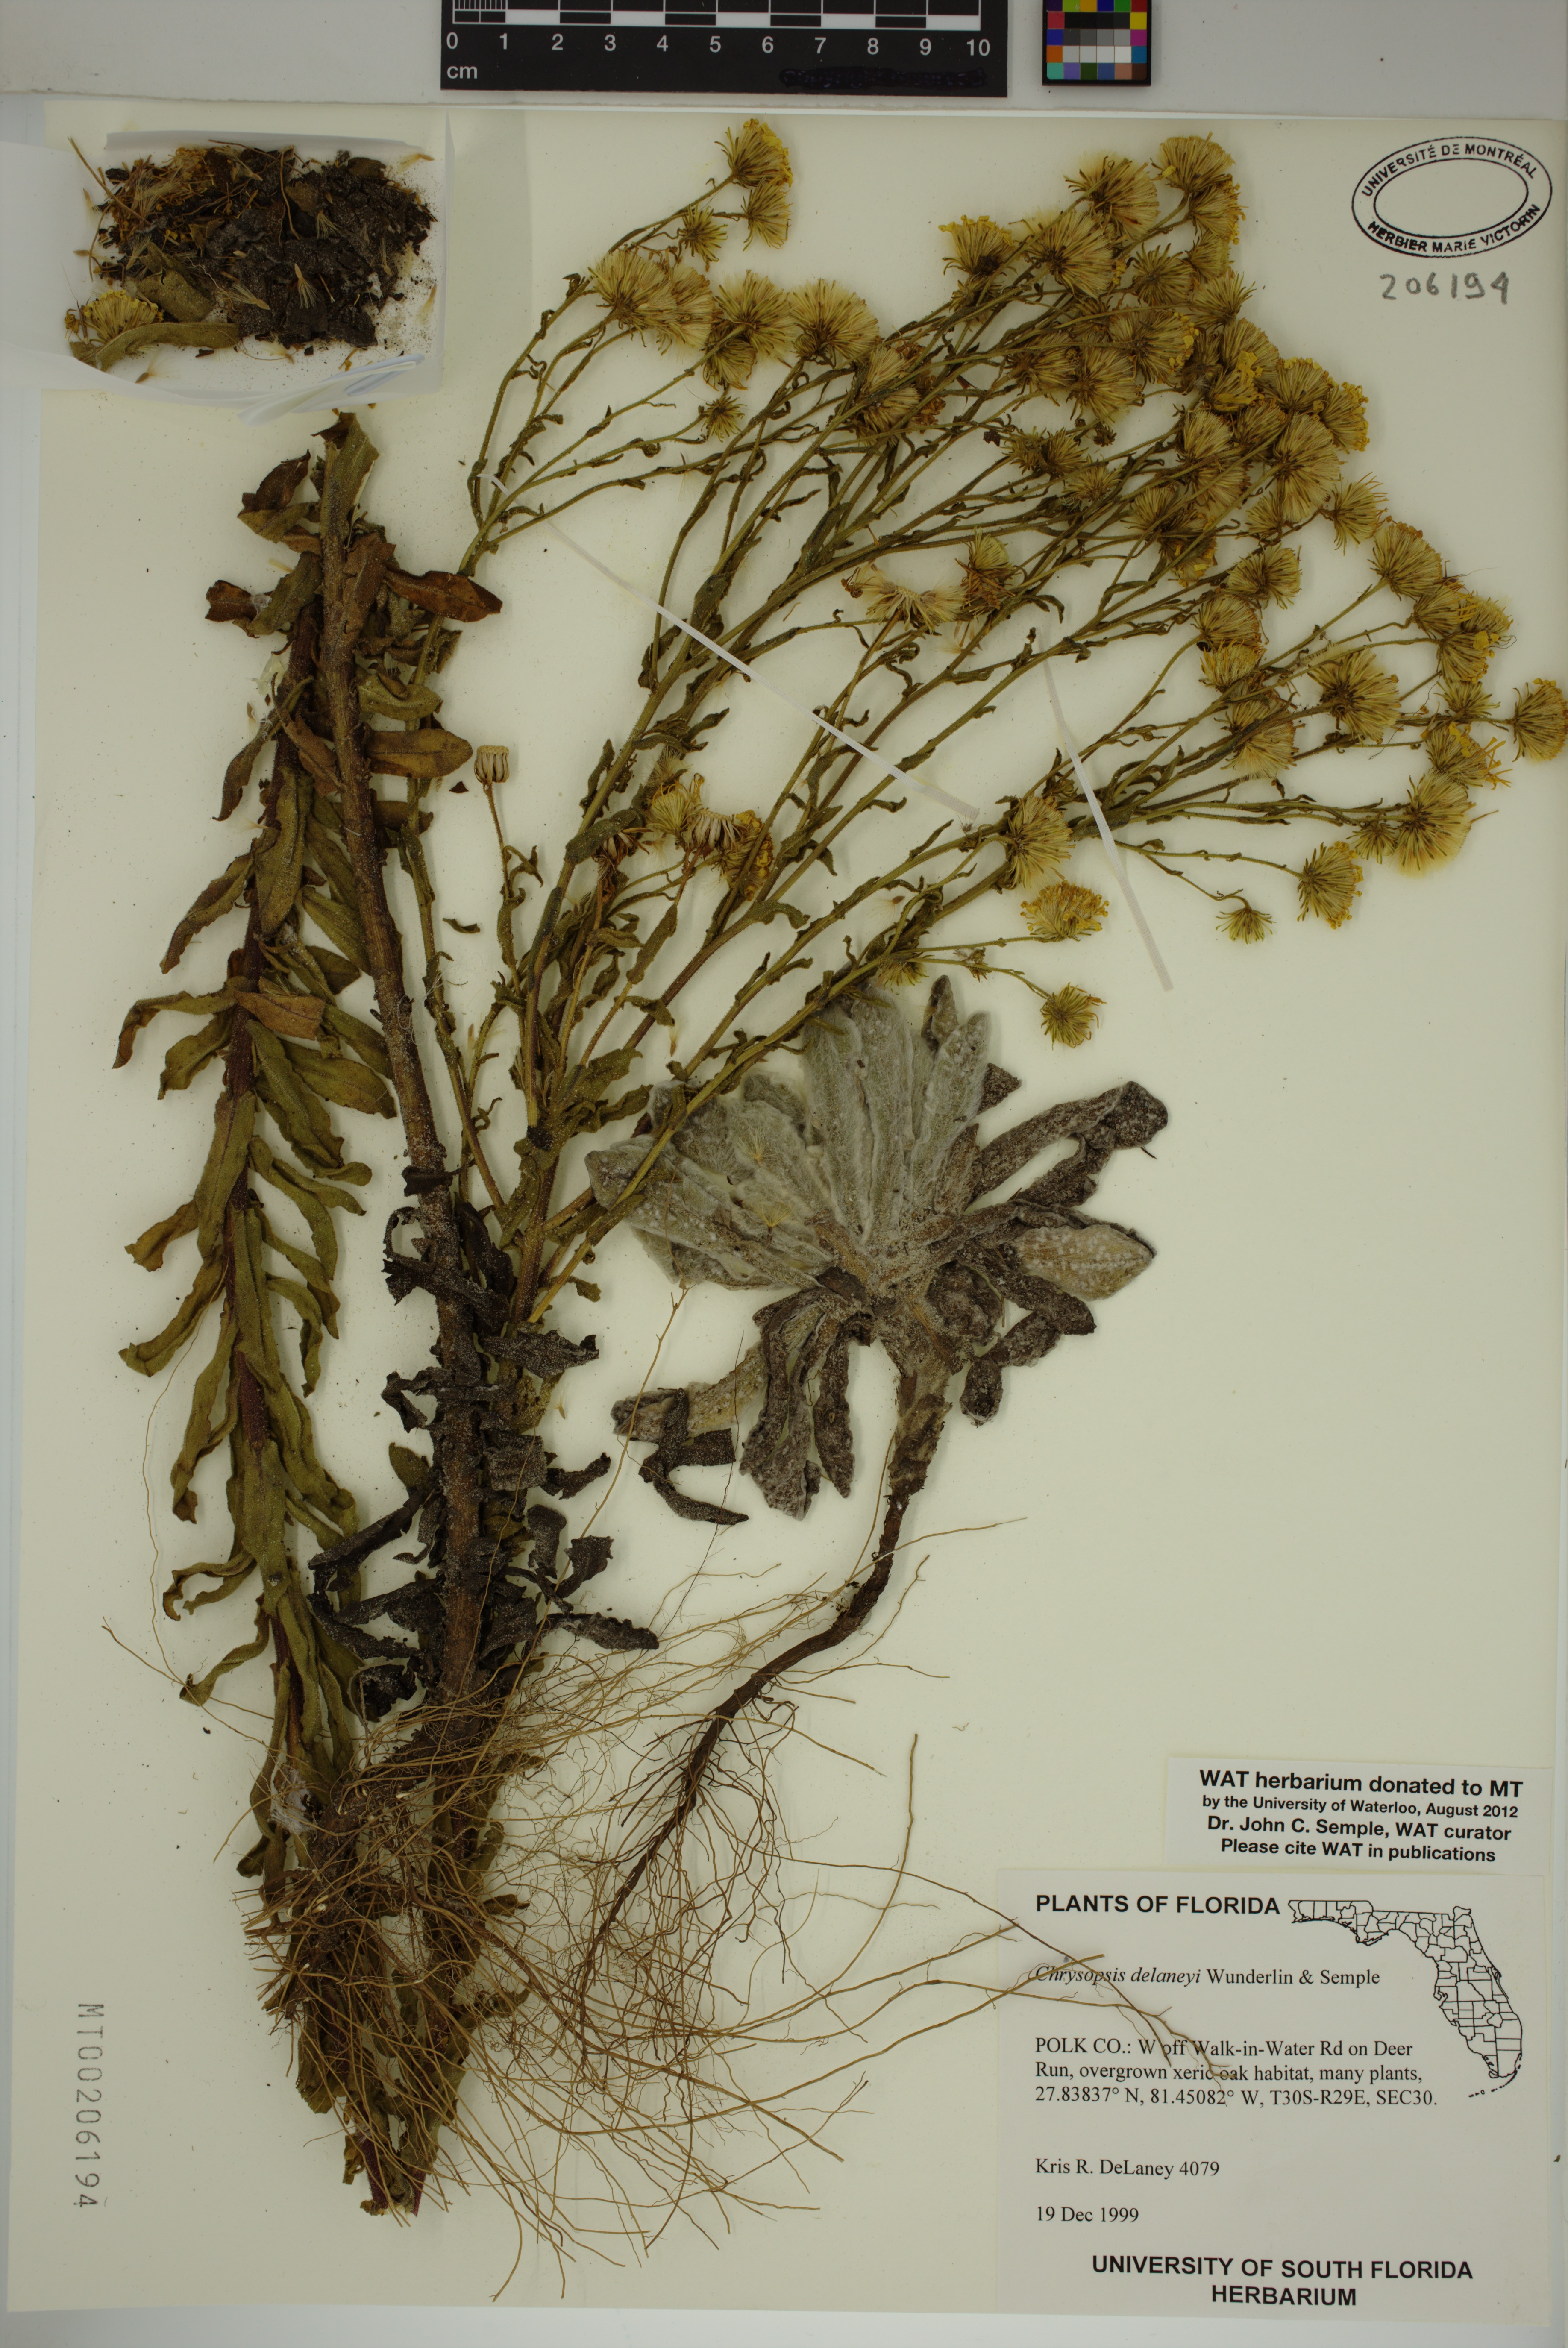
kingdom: Plantae
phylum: Tracheophyta
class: Magnoliopsida
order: Asterales
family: Asteraceae
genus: Chrysopsis
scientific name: Chrysopsis delaneyi
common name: Delaney's goldenaster
